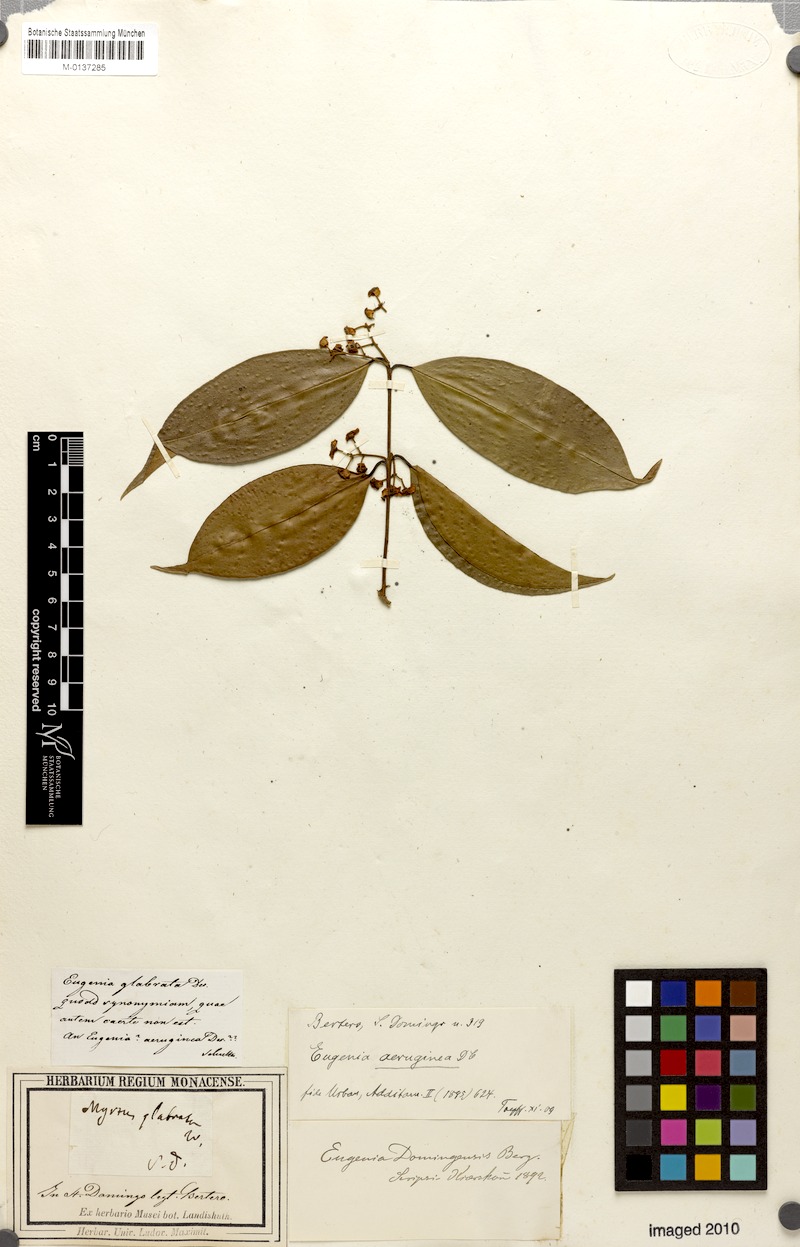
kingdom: Plantae
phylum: Tracheophyta
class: Magnoliopsida
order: Myrtales
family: Myrtaceae
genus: Eugenia
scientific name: Eugenia domingensis
